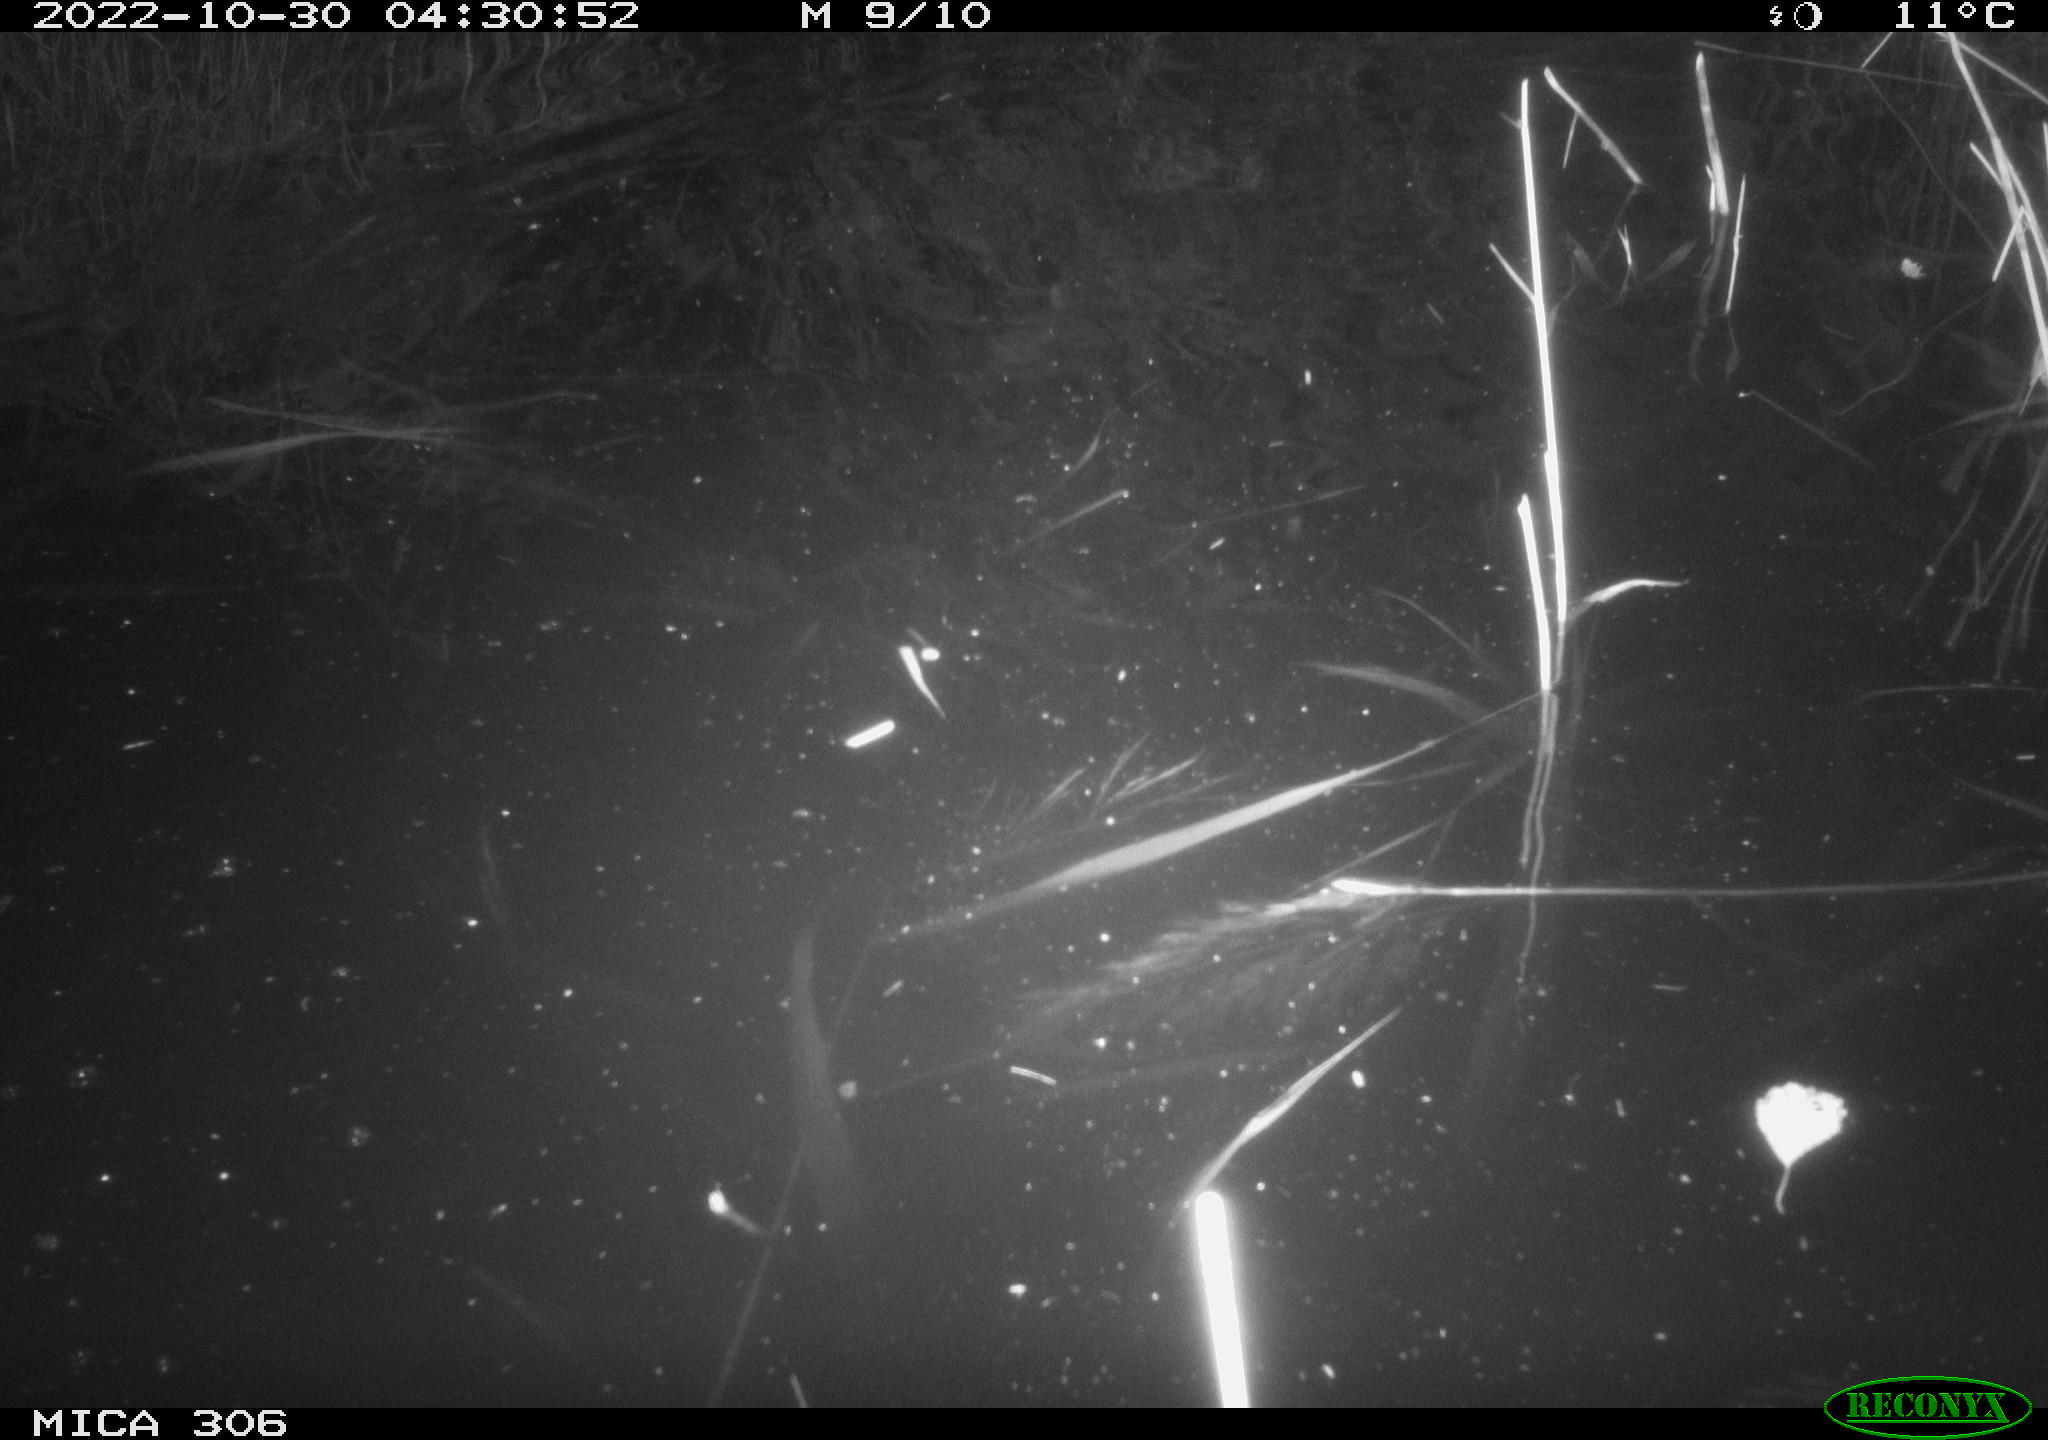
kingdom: Animalia
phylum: Chordata
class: Mammalia
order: Rodentia
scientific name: Rodentia
